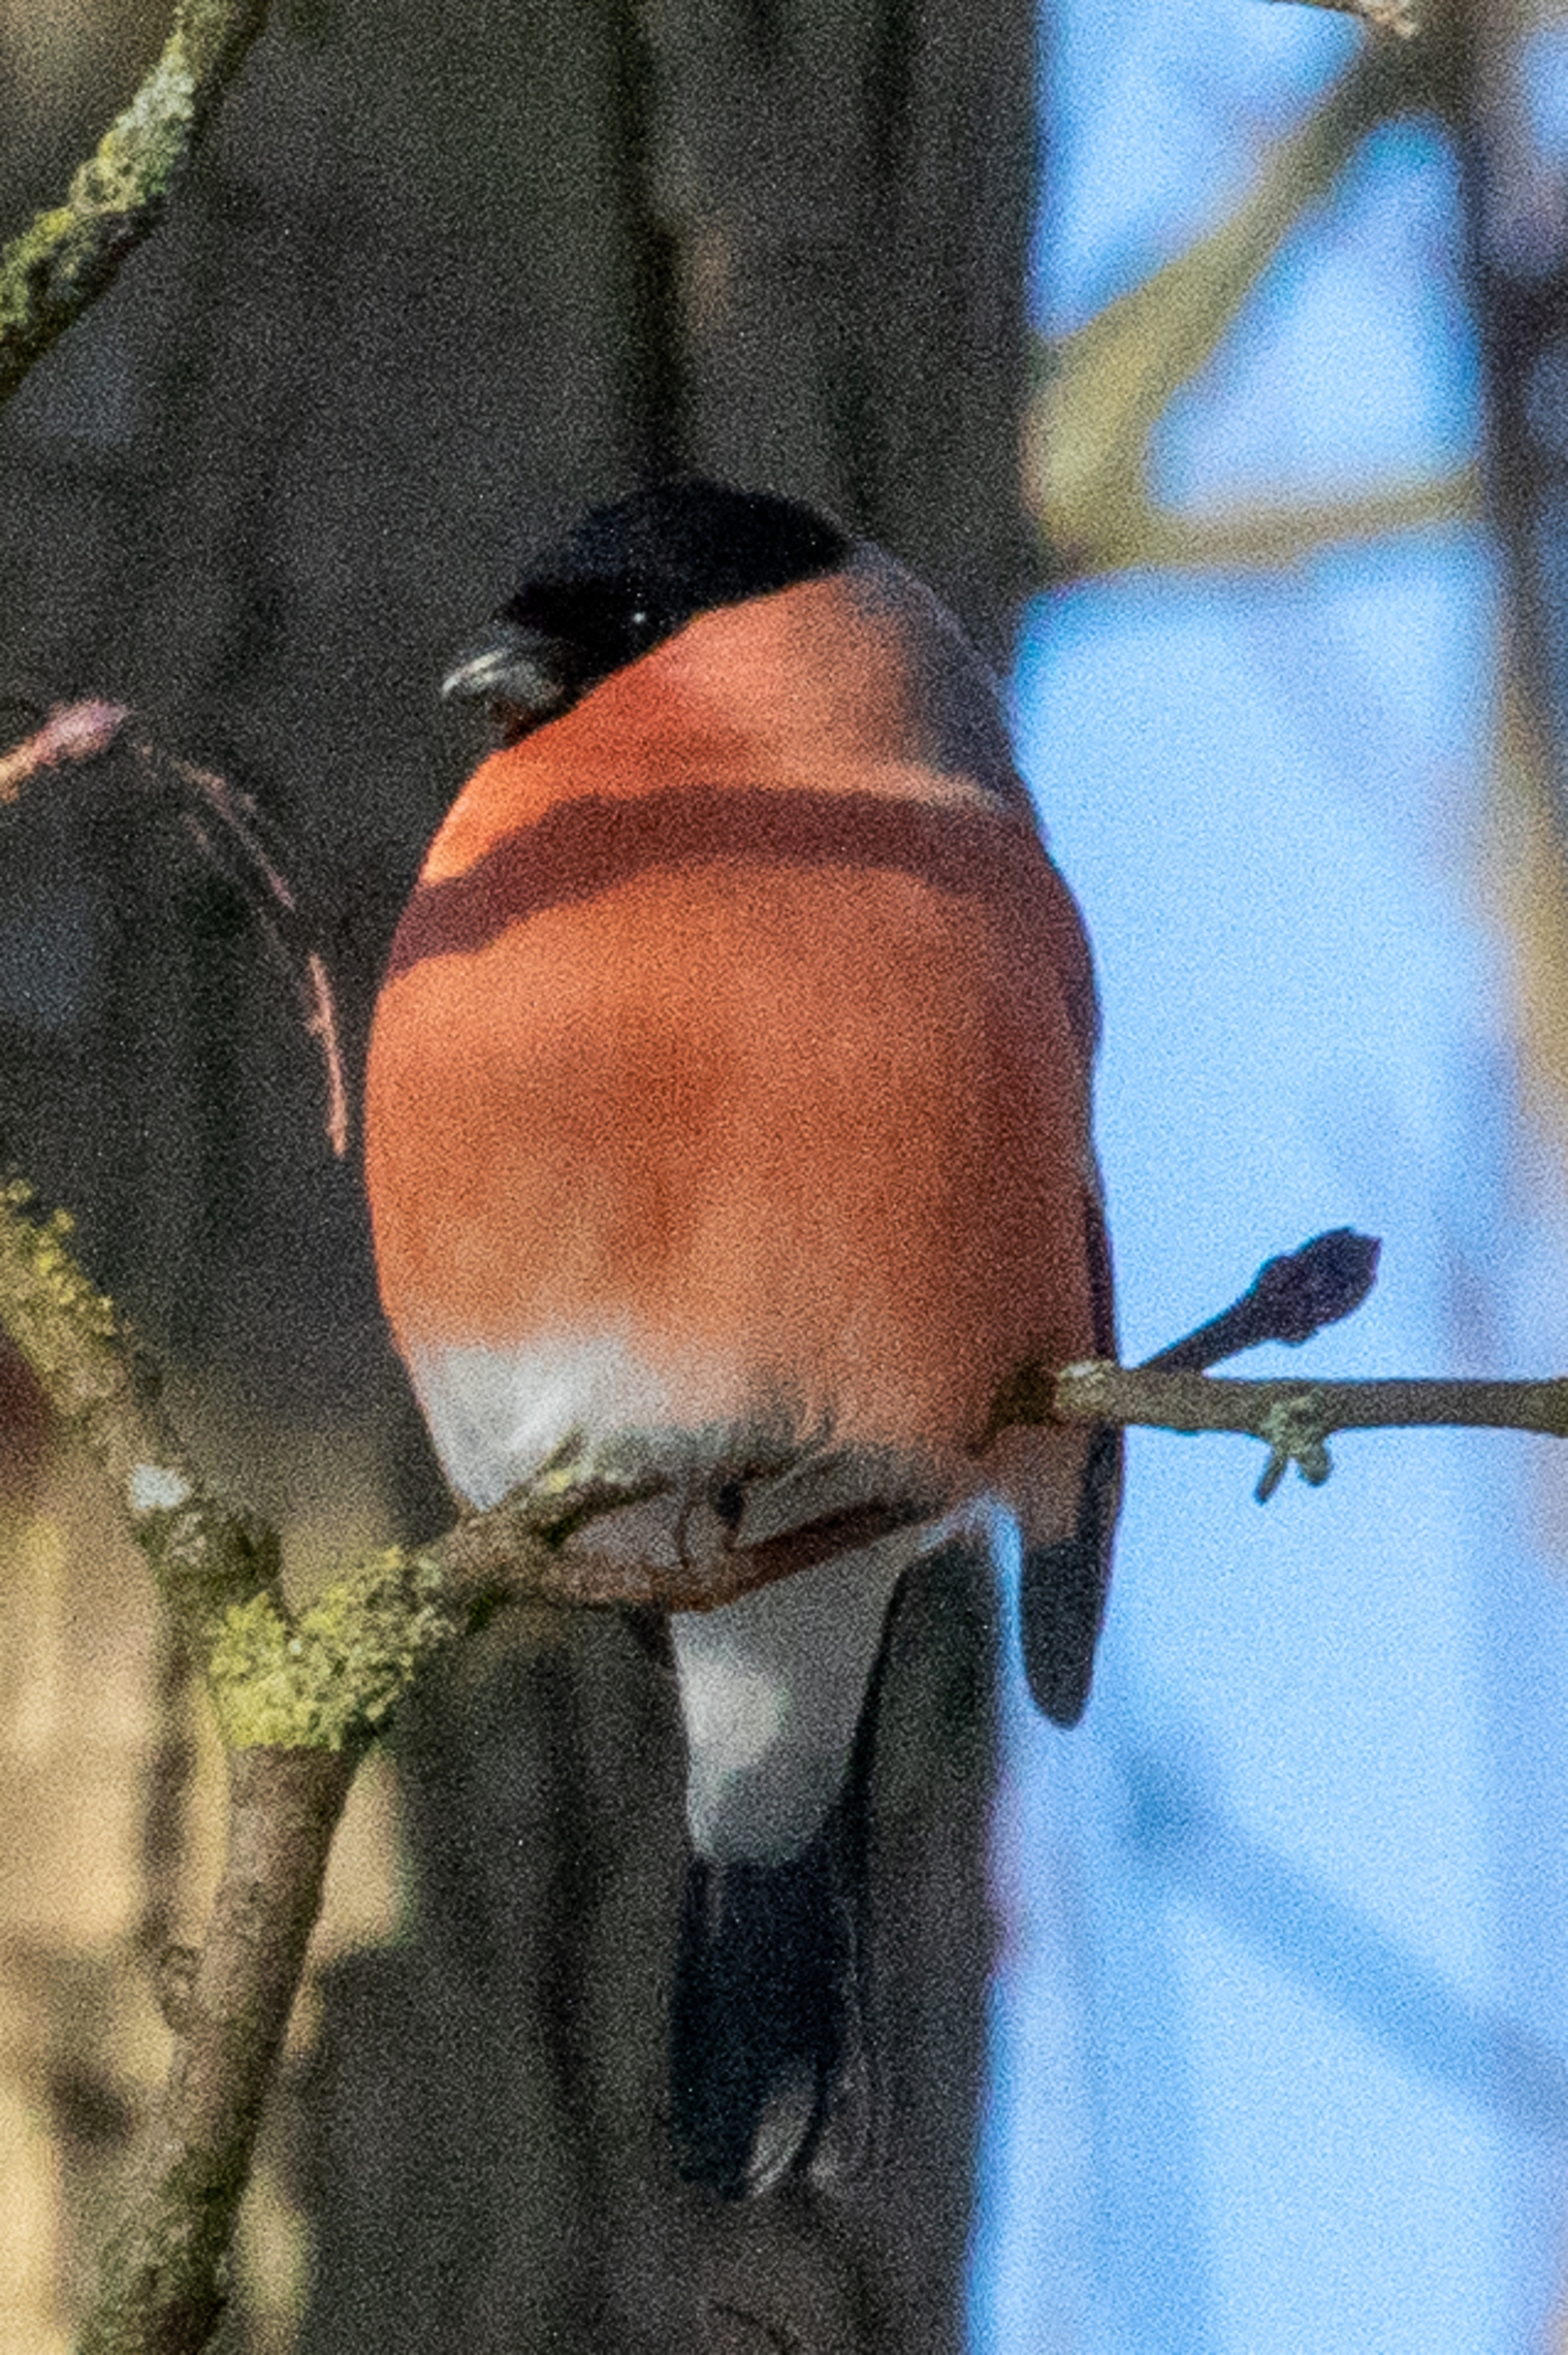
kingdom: Animalia
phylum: Chordata
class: Aves
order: Passeriformes
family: Fringillidae
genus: Pyrrhula
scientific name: Pyrrhula pyrrhula
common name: Dompap
